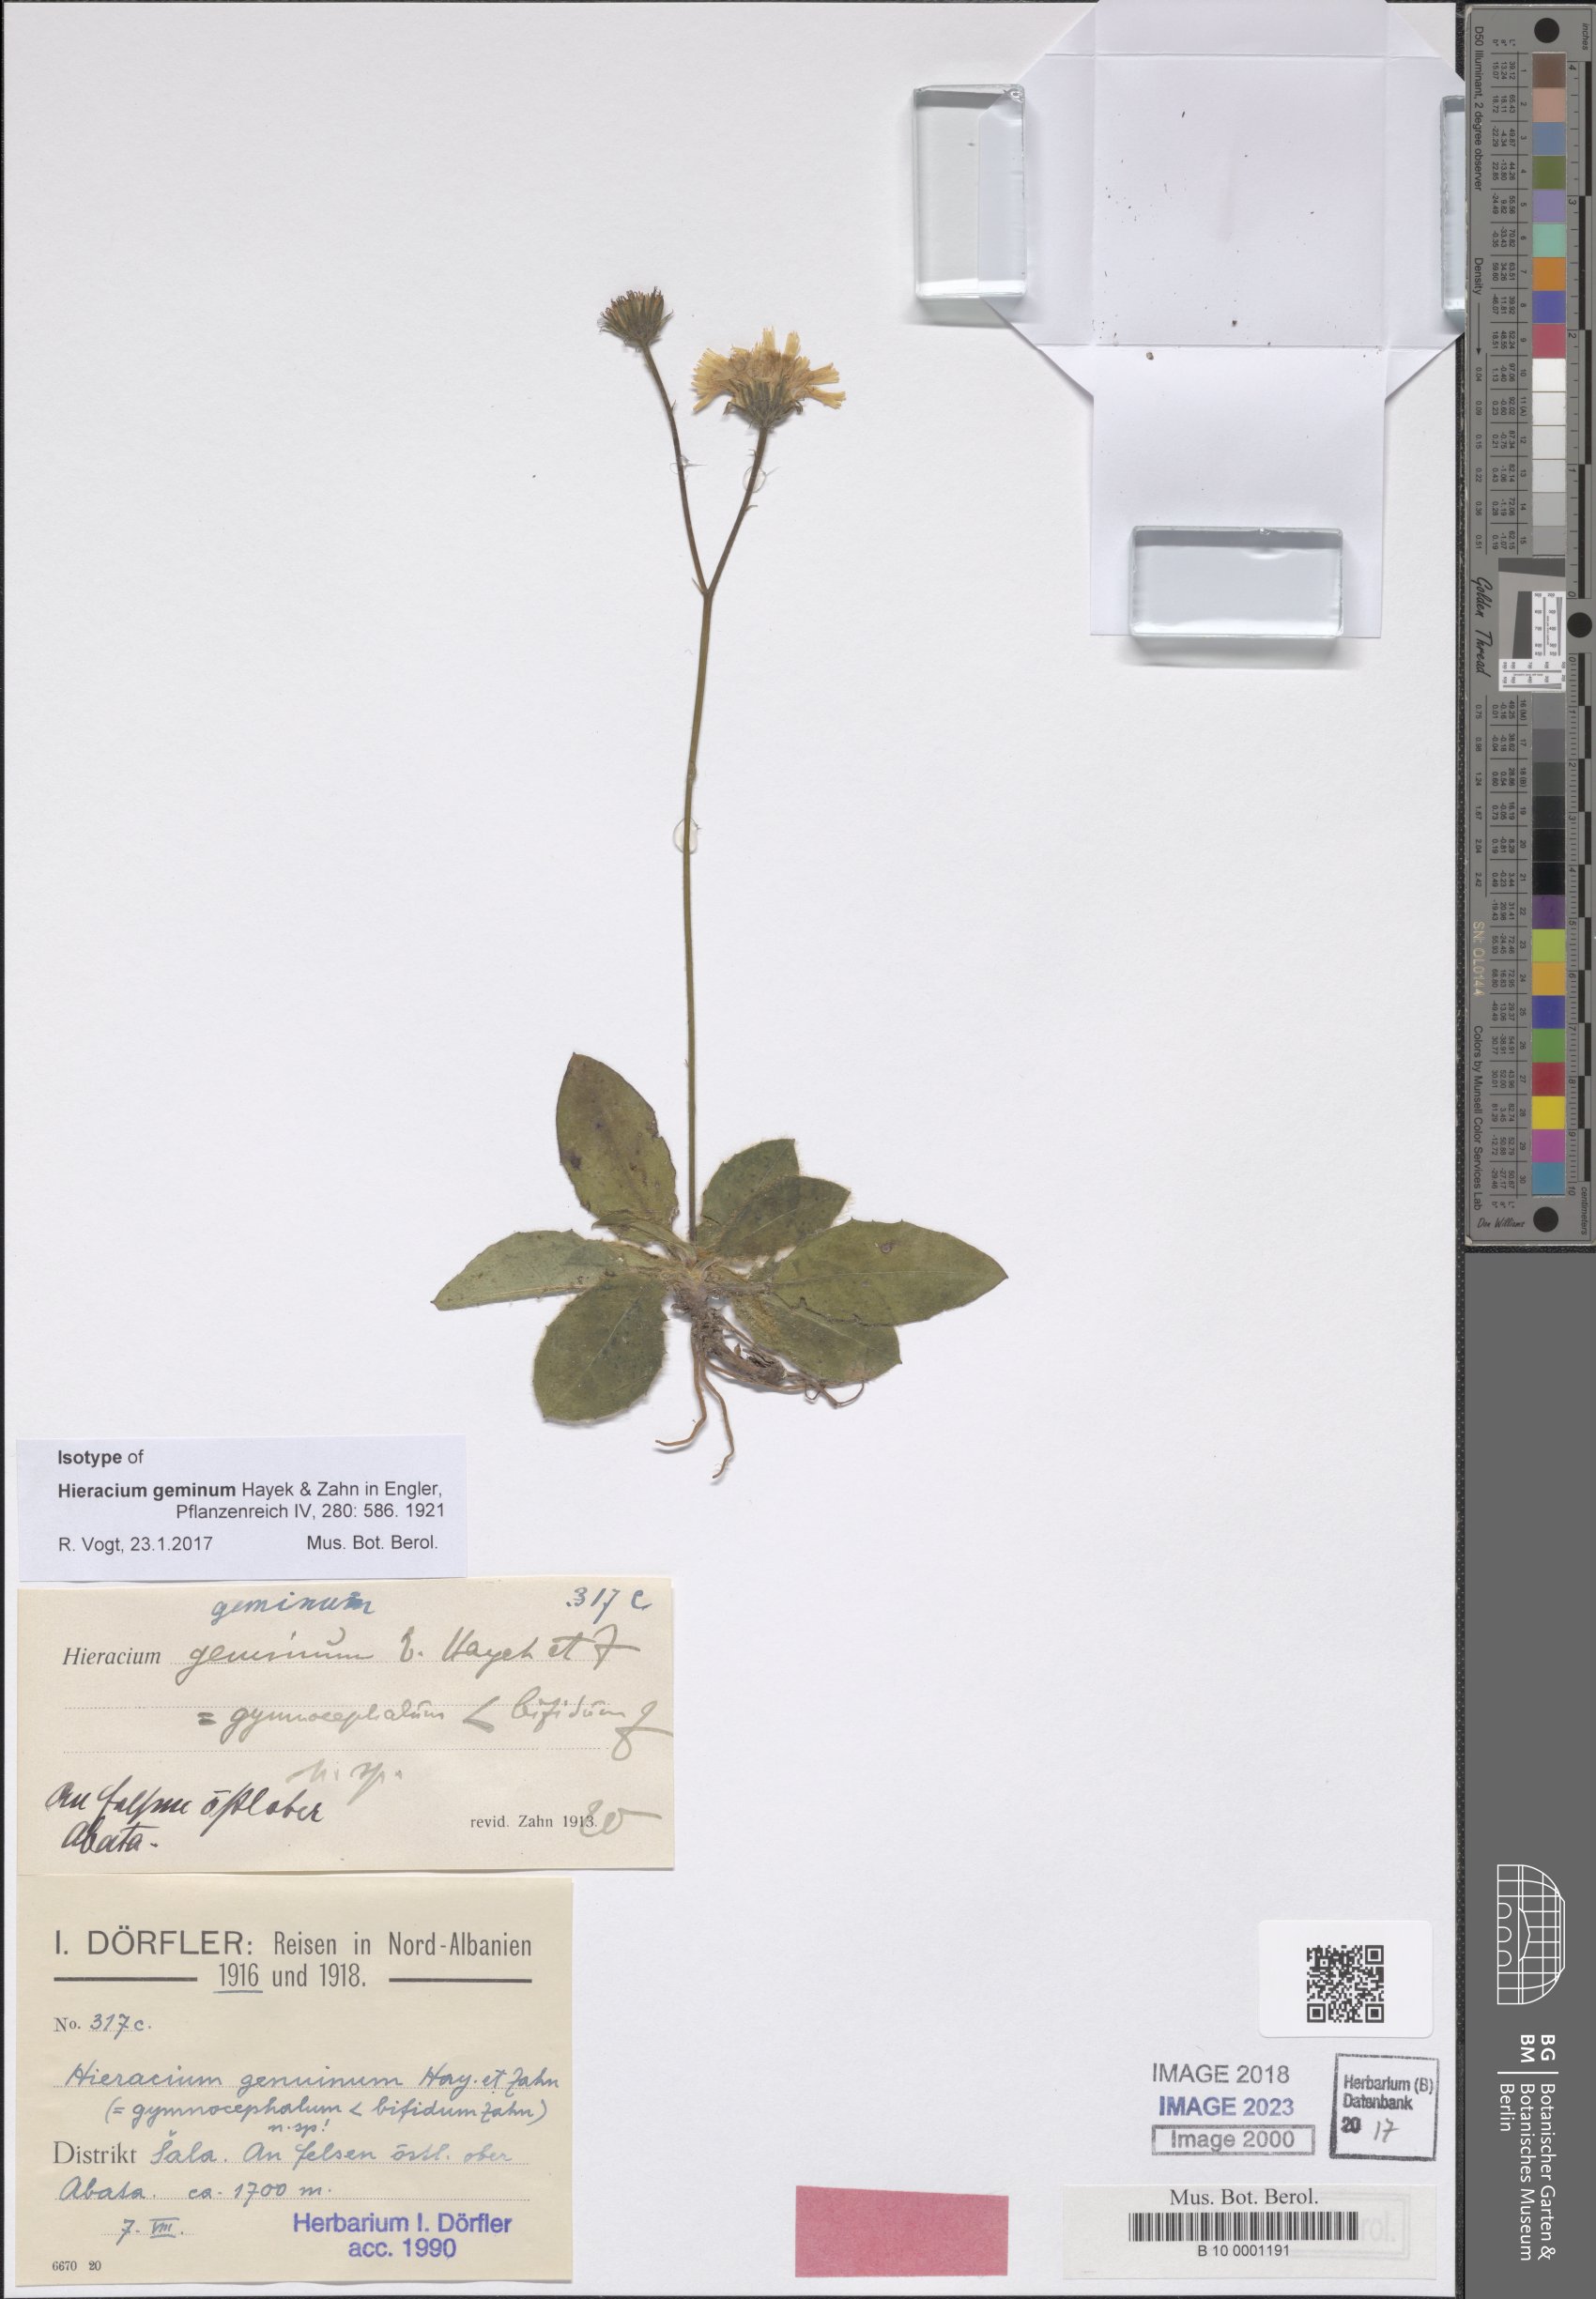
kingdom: Plantae
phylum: Tracheophyta
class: Magnoliopsida
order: Asterales
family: Asteraceae
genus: Hieracium
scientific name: Hieracium geminum
